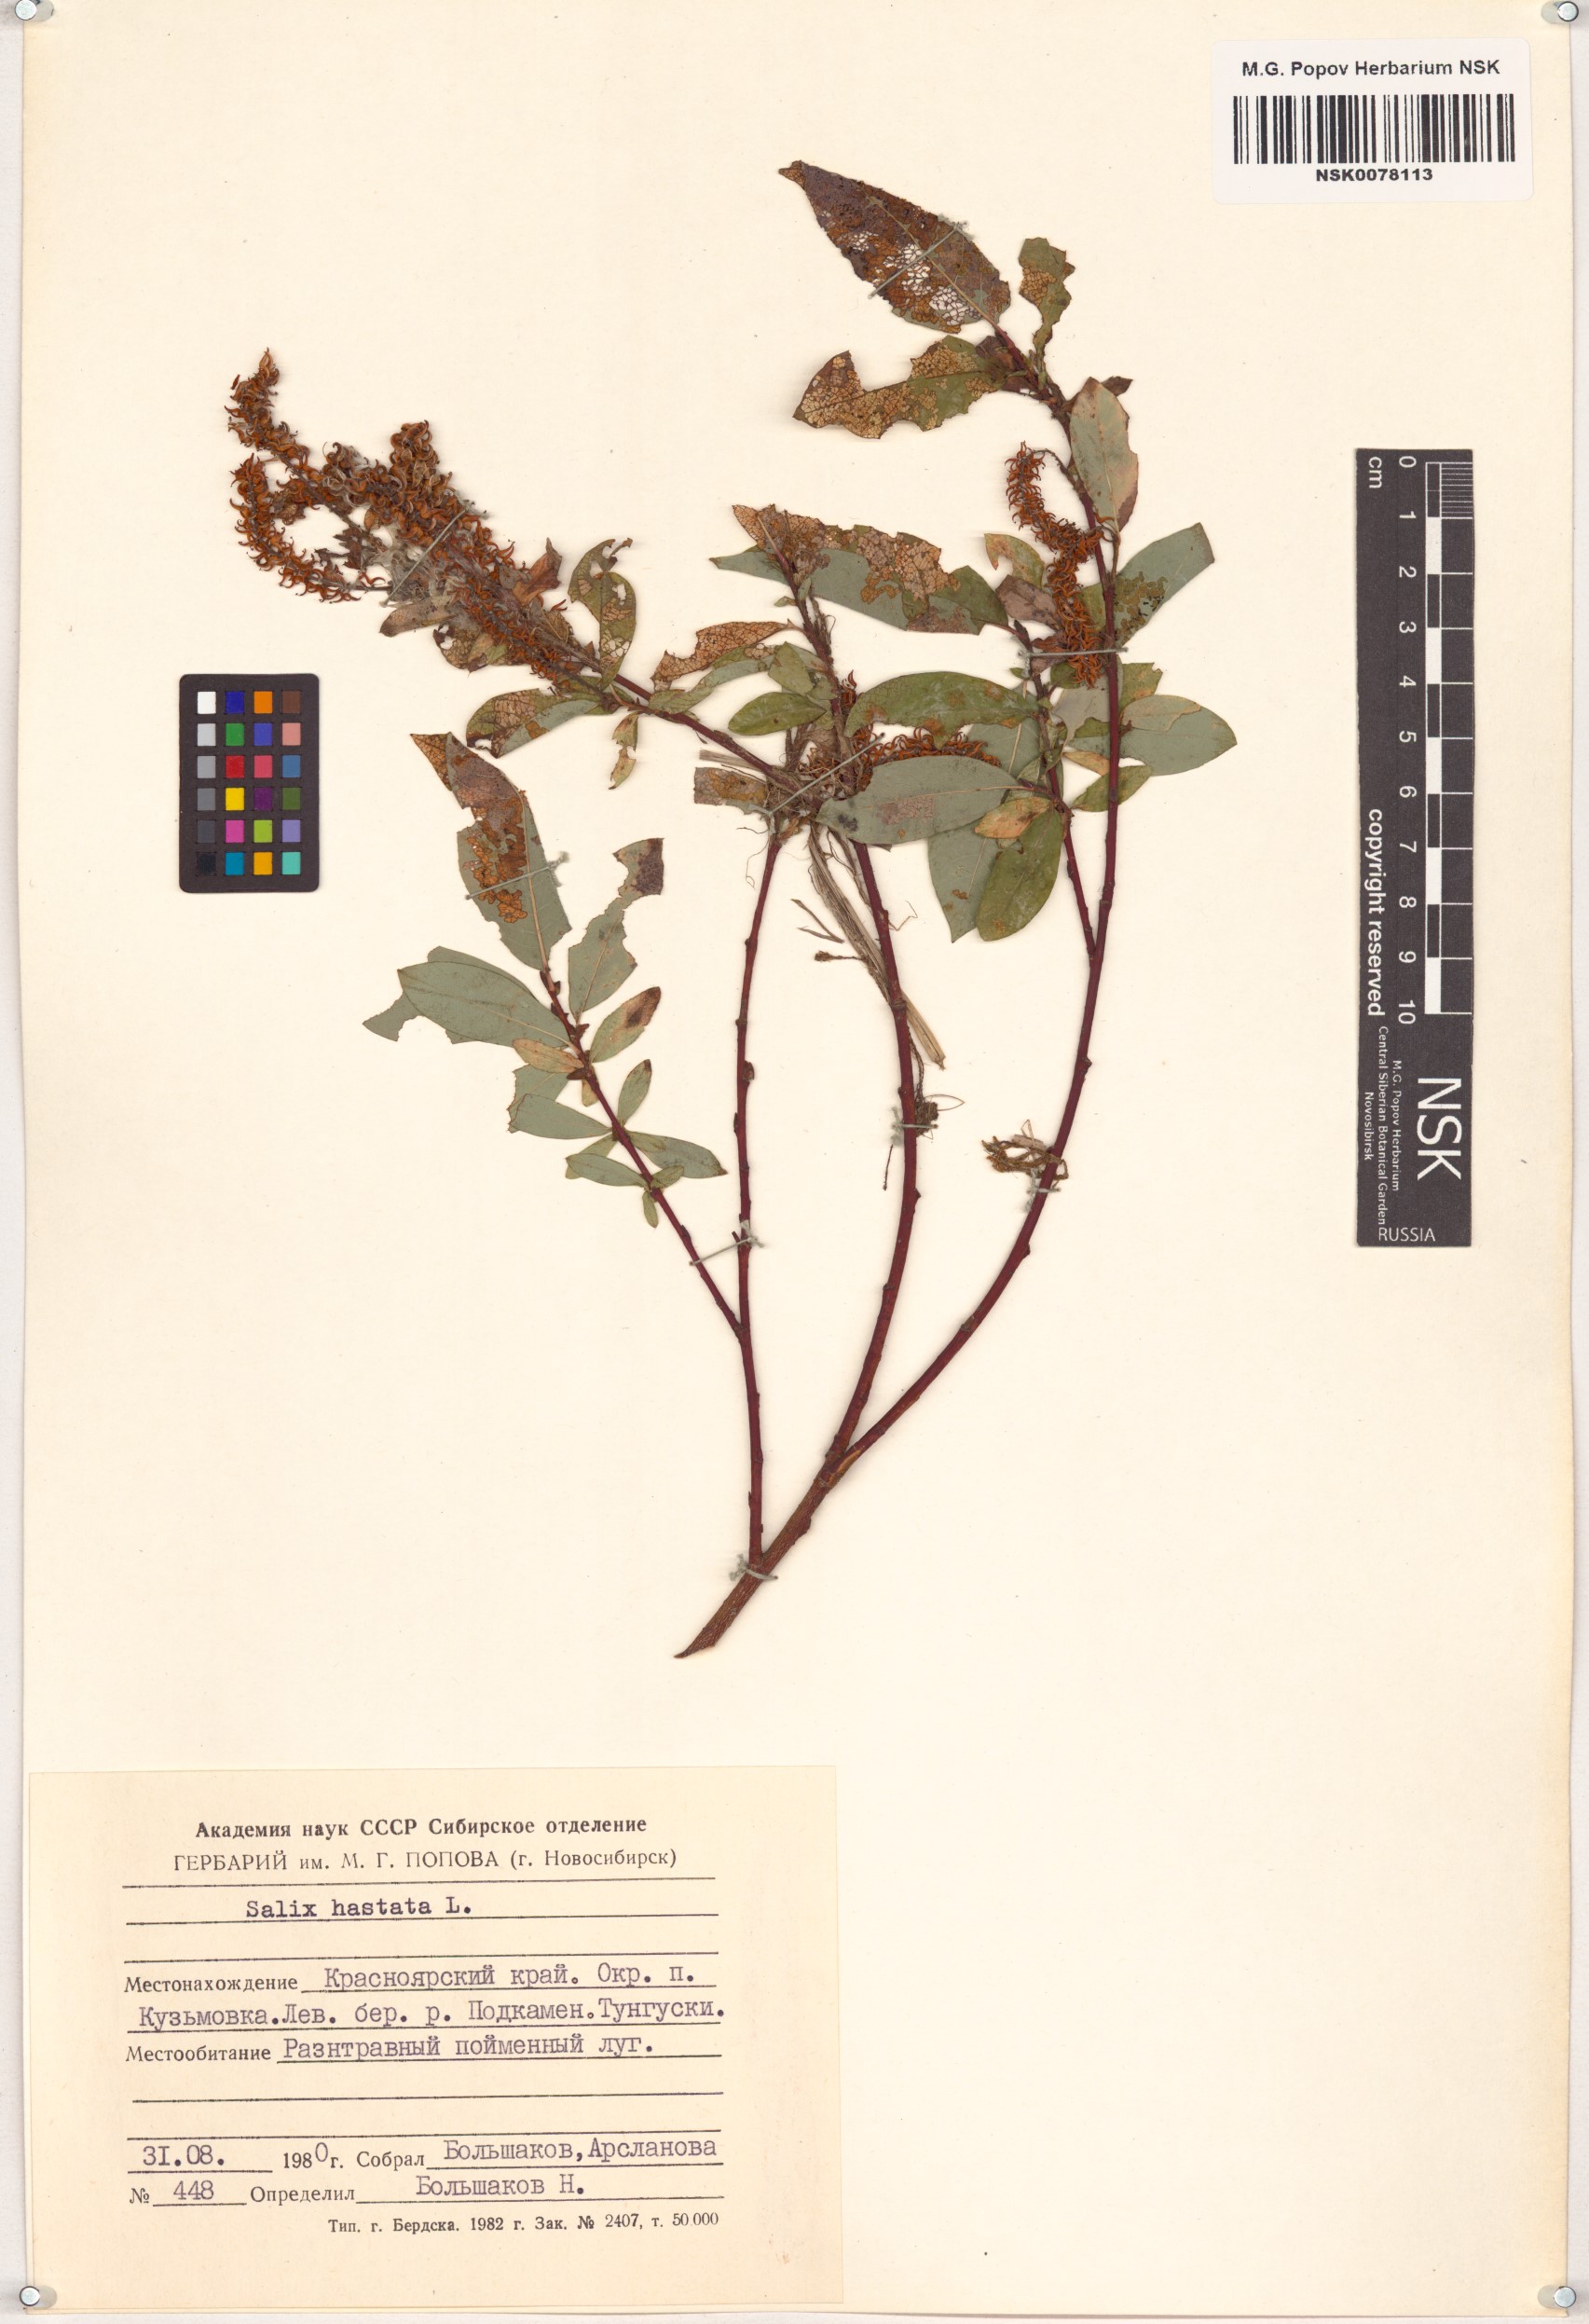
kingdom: Plantae
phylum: Tracheophyta
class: Magnoliopsida
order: Malpighiales
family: Salicaceae
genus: Salix
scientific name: Salix hastata
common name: Halberd willow
